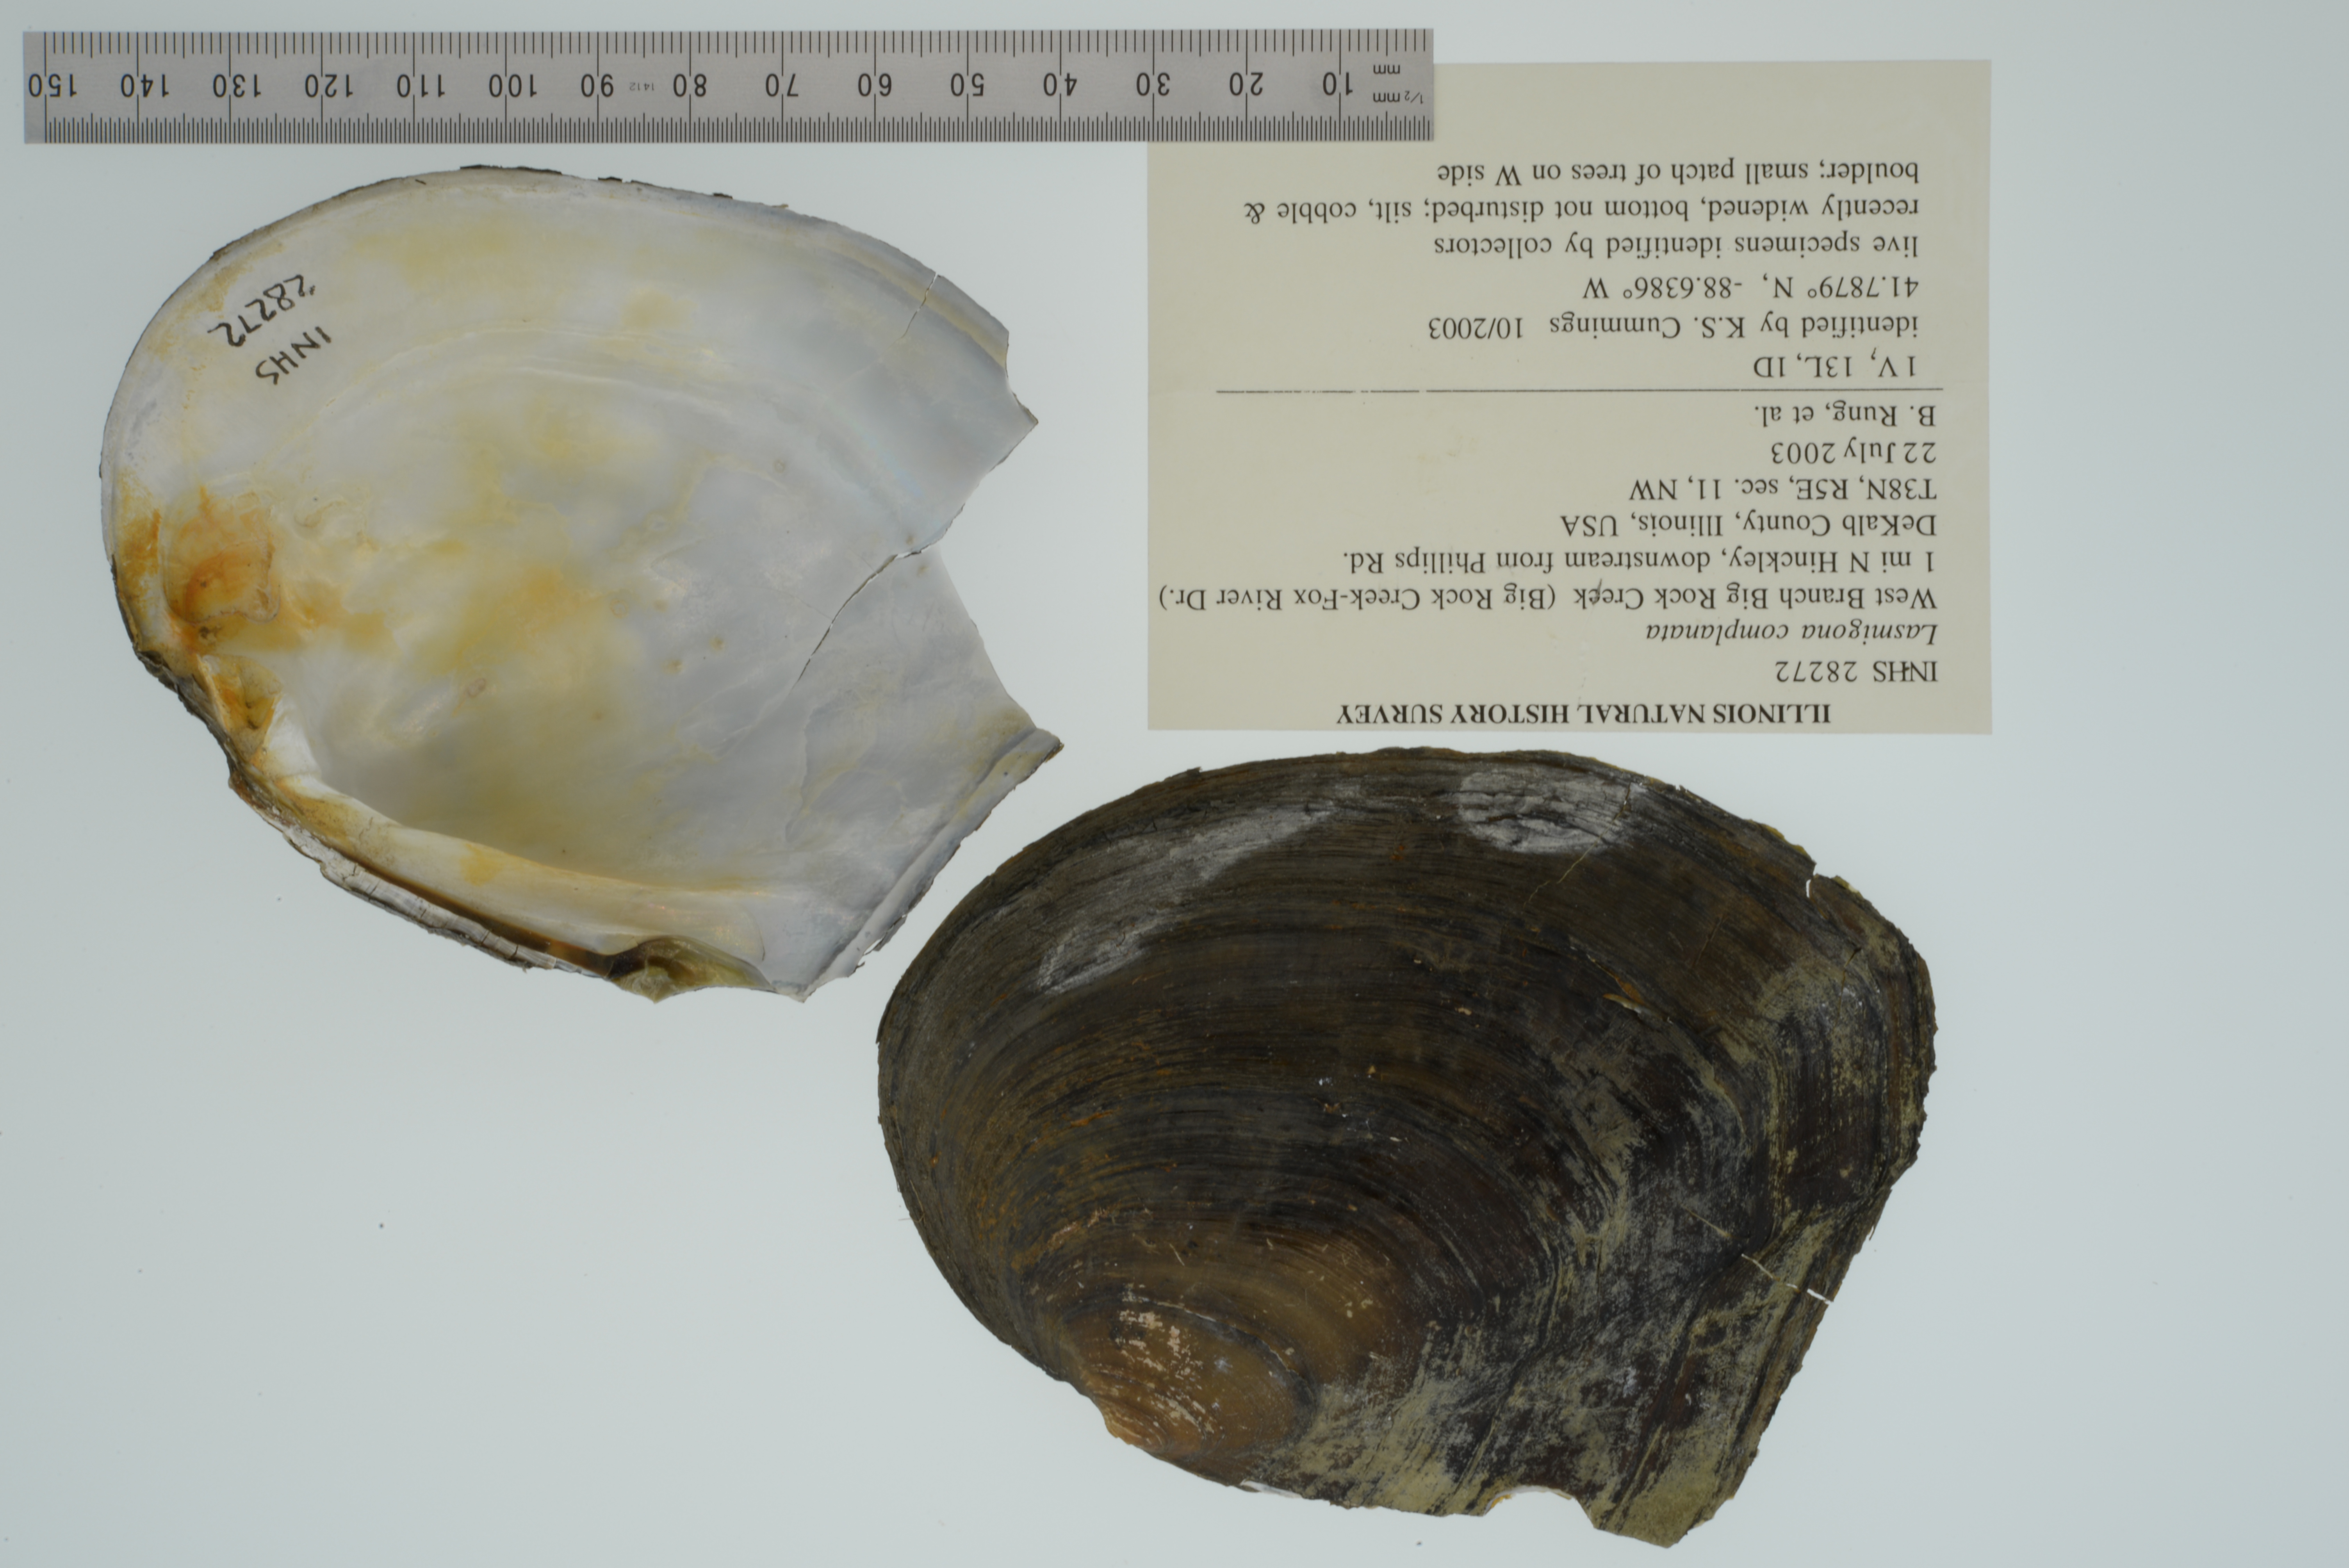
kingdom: Animalia
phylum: Mollusca
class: Bivalvia
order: Unionida
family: Unionidae
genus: Lasmigona
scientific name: Lasmigona complanata
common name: White heelsplitter
